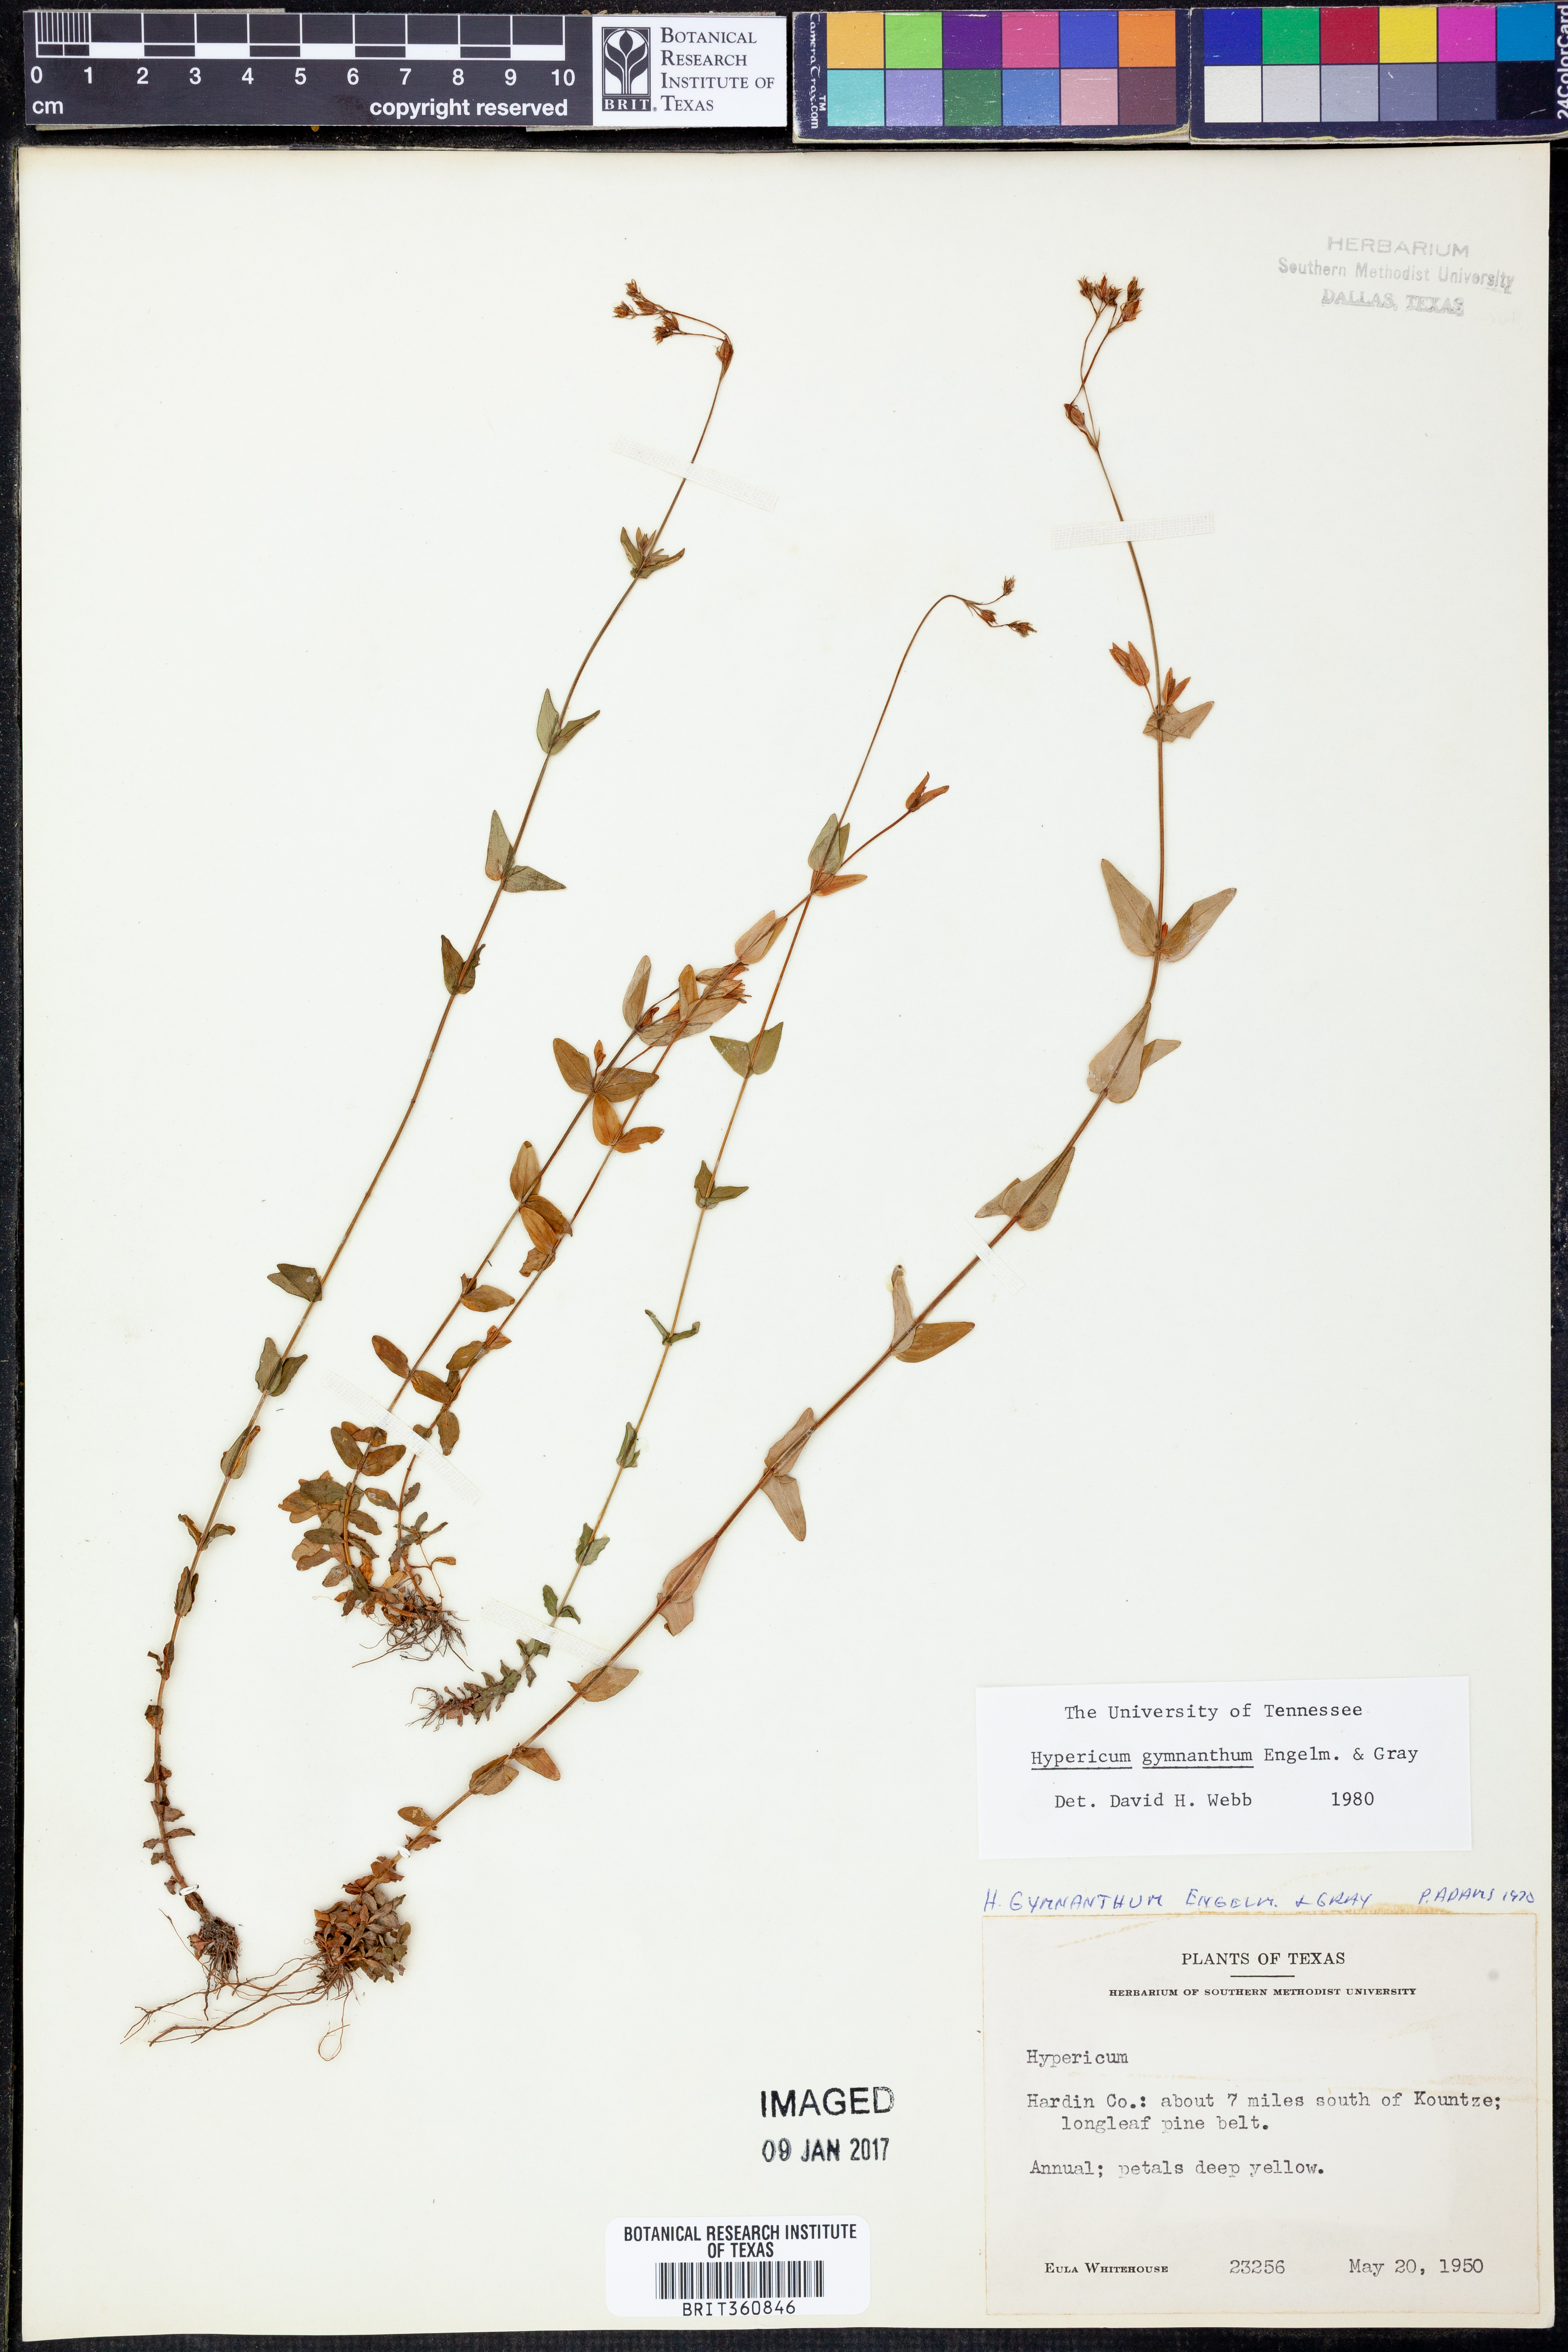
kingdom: Plantae
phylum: Tracheophyta
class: Magnoliopsida
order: Malpighiales
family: Hypericaceae
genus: Hypericum
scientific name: Hypericum gymnanthum
